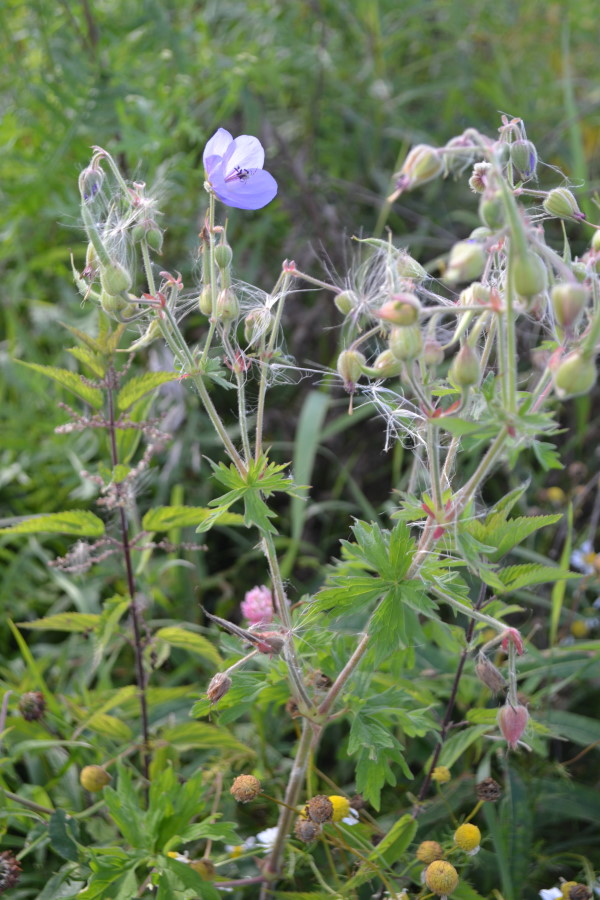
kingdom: Plantae
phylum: Tracheophyta
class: Magnoliopsida
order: Geraniales
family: Geraniaceae
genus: Geranium
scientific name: Geranium pratense
